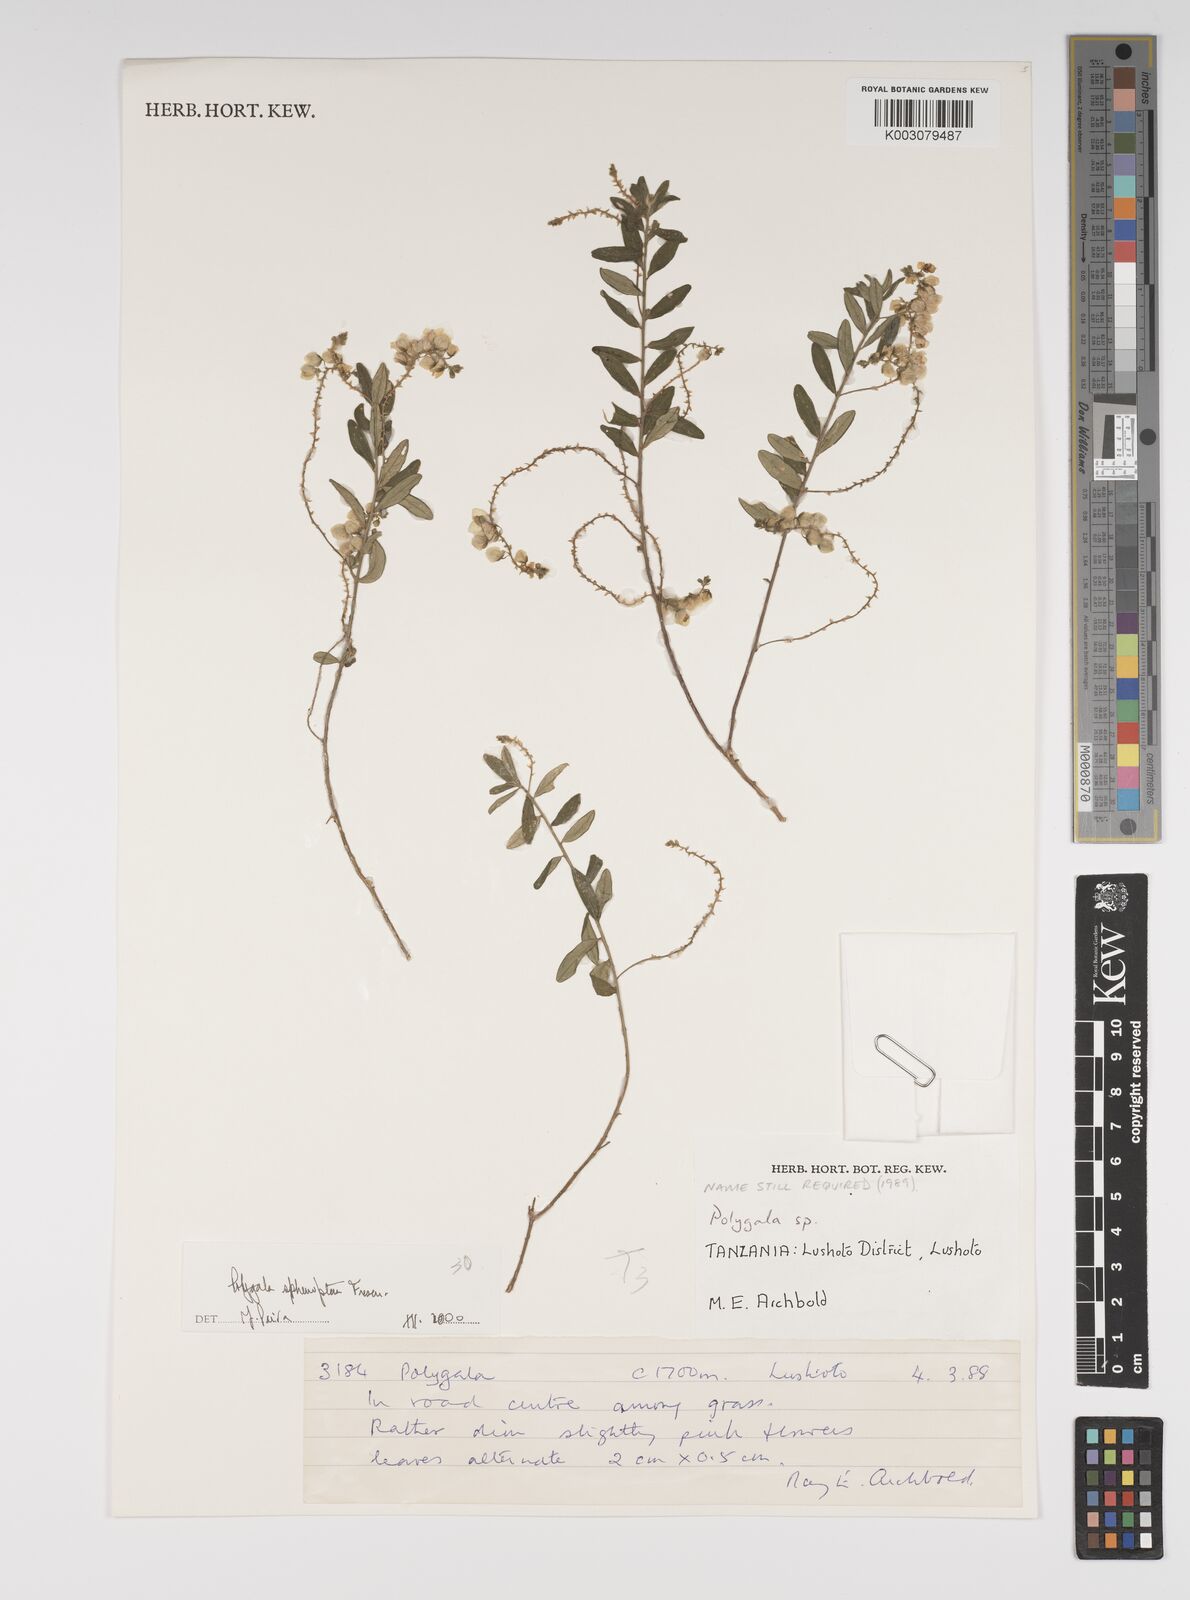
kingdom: Plantae
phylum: Tracheophyta
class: Magnoliopsida
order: Fabales
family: Polygalaceae
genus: Polygala
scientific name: Polygala sphenoptera
